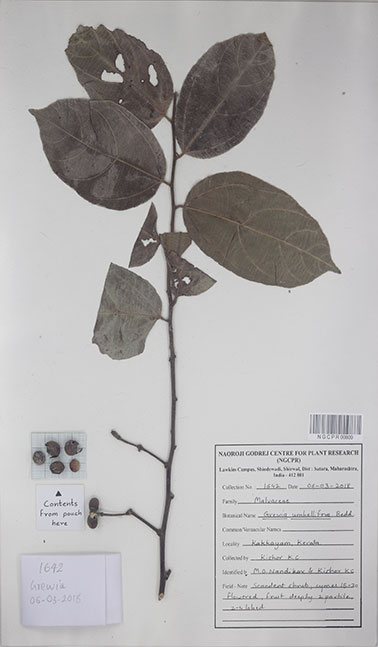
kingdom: Plantae
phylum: Tracheophyta
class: Magnoliopsida
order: Malvales
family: Malvaceae
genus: Grewia
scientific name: Grewia umbellifera
